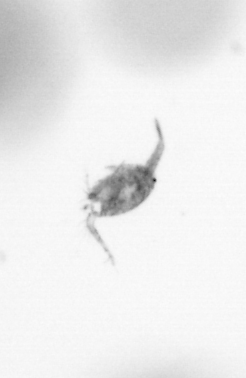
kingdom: Animalia
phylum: Arthropoda
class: Copepoda
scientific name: Copepoda
